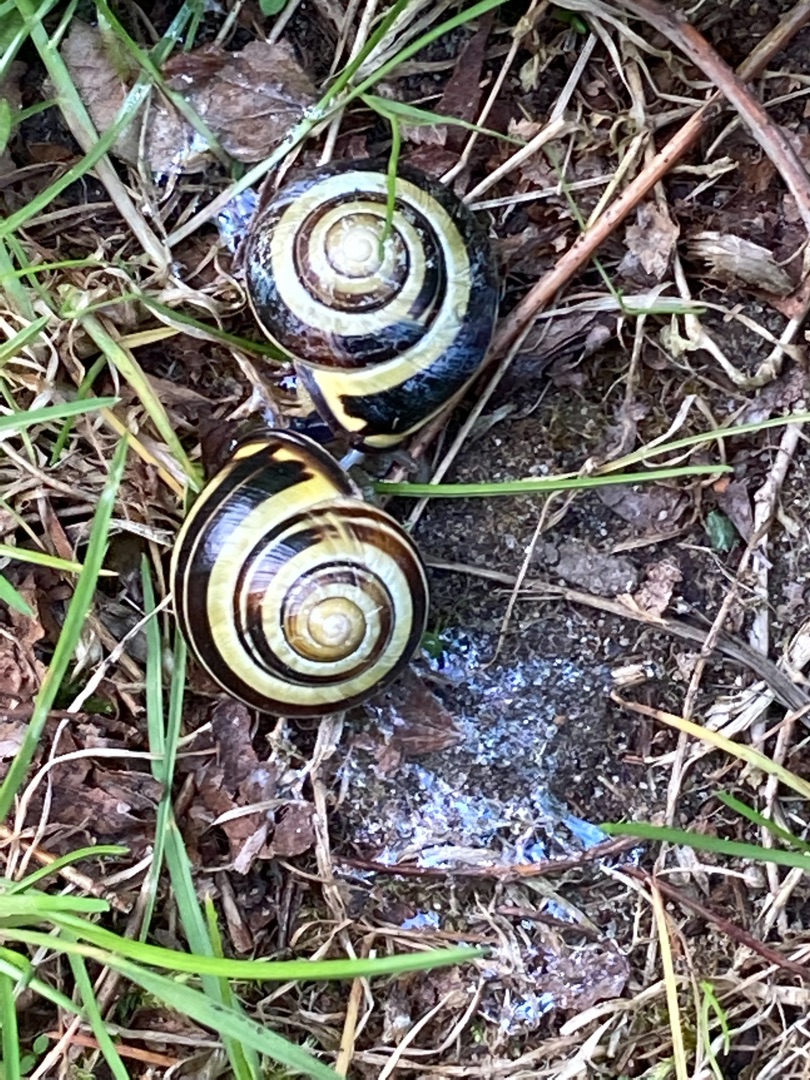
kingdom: Animalia
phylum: Mollusca
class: Gastropoda
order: Stylommatophora
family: Helicidae
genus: Cepaea
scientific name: Cepaea nemoralis
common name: Lundsnegl
